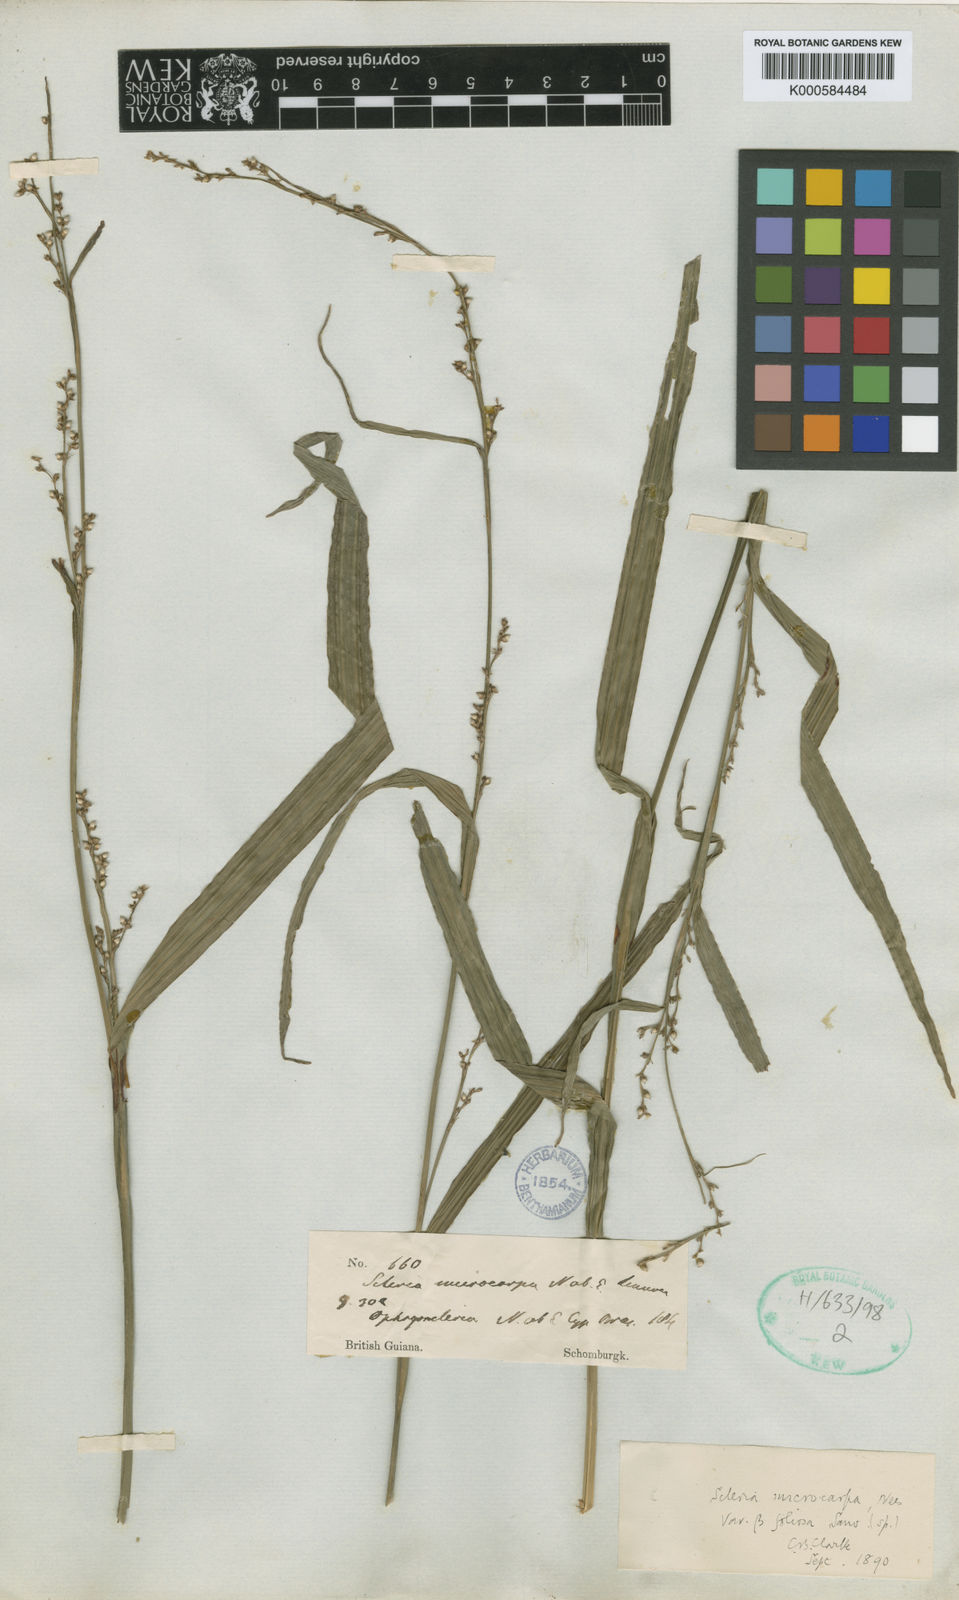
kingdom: Plantae
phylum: Tracheophyta
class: Liliopsida
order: Poales
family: Cyperaceae
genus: Scleria
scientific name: Scleria
